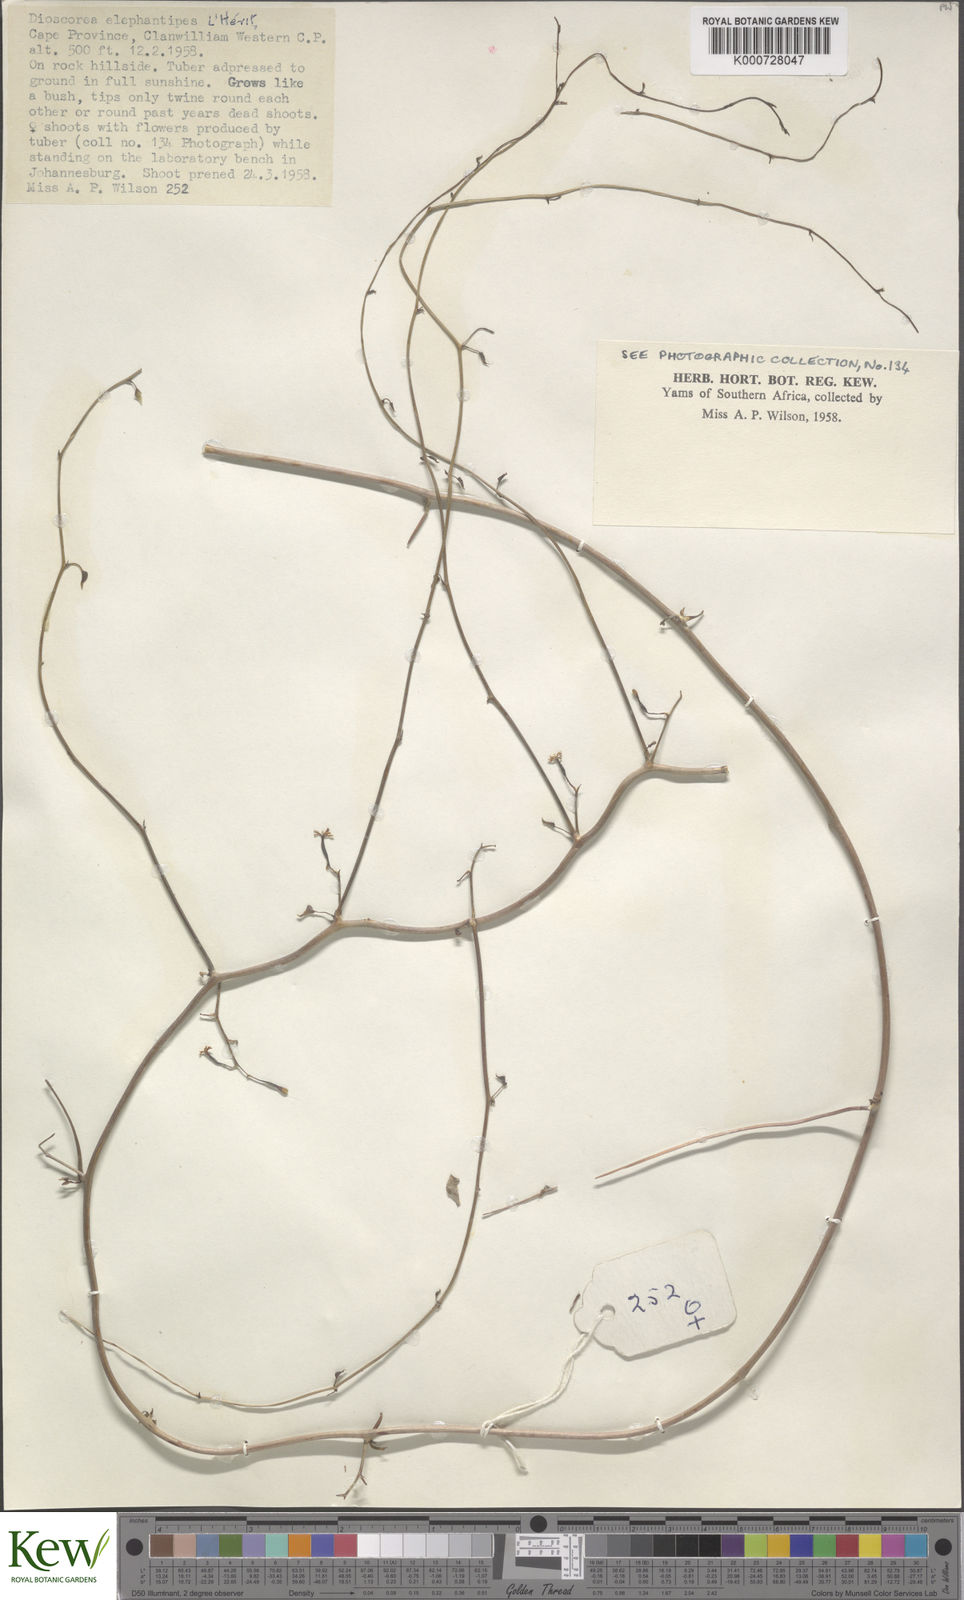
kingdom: Plantae
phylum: Tracheophyta
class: Liliopsida
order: Dioscoreales
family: Dioscoreaceae
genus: Dioscorea
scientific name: Dioscorea
